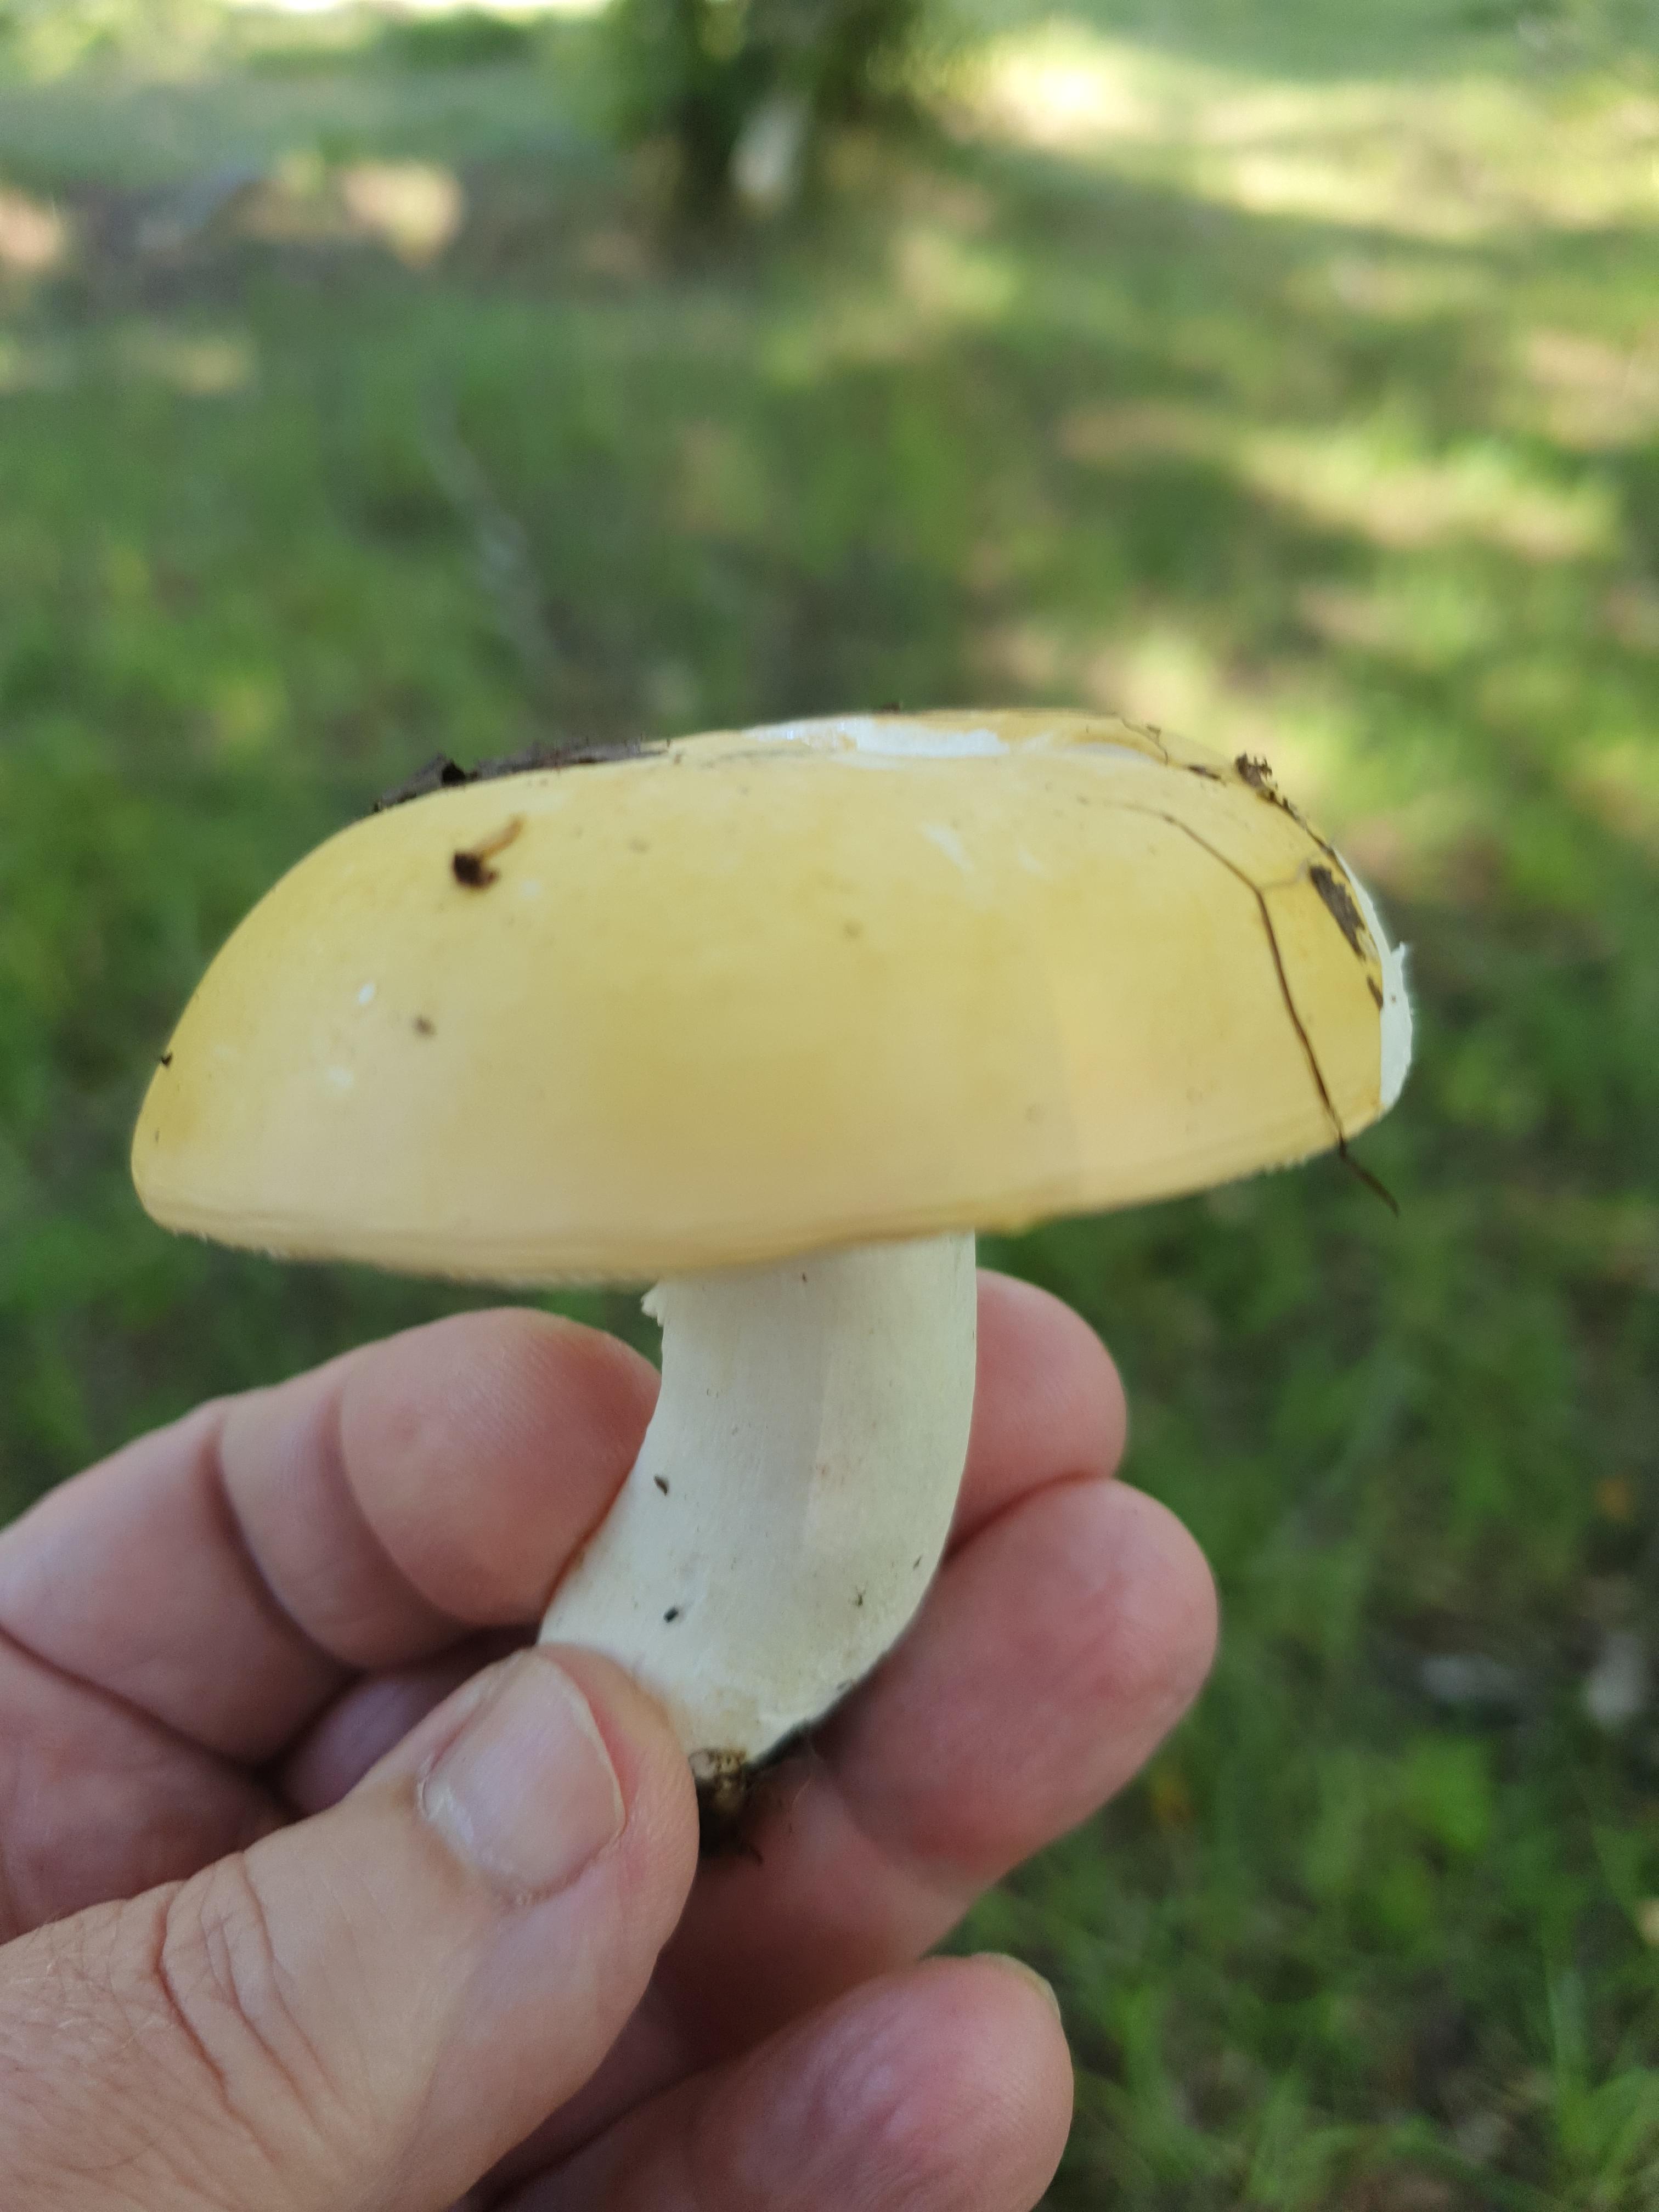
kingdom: Fungi
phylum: Basidiomycota
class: Agaricomycetes
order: Russulales
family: Russulaceae
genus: Russula
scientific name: Russula claroflava
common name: birke-skørhat
